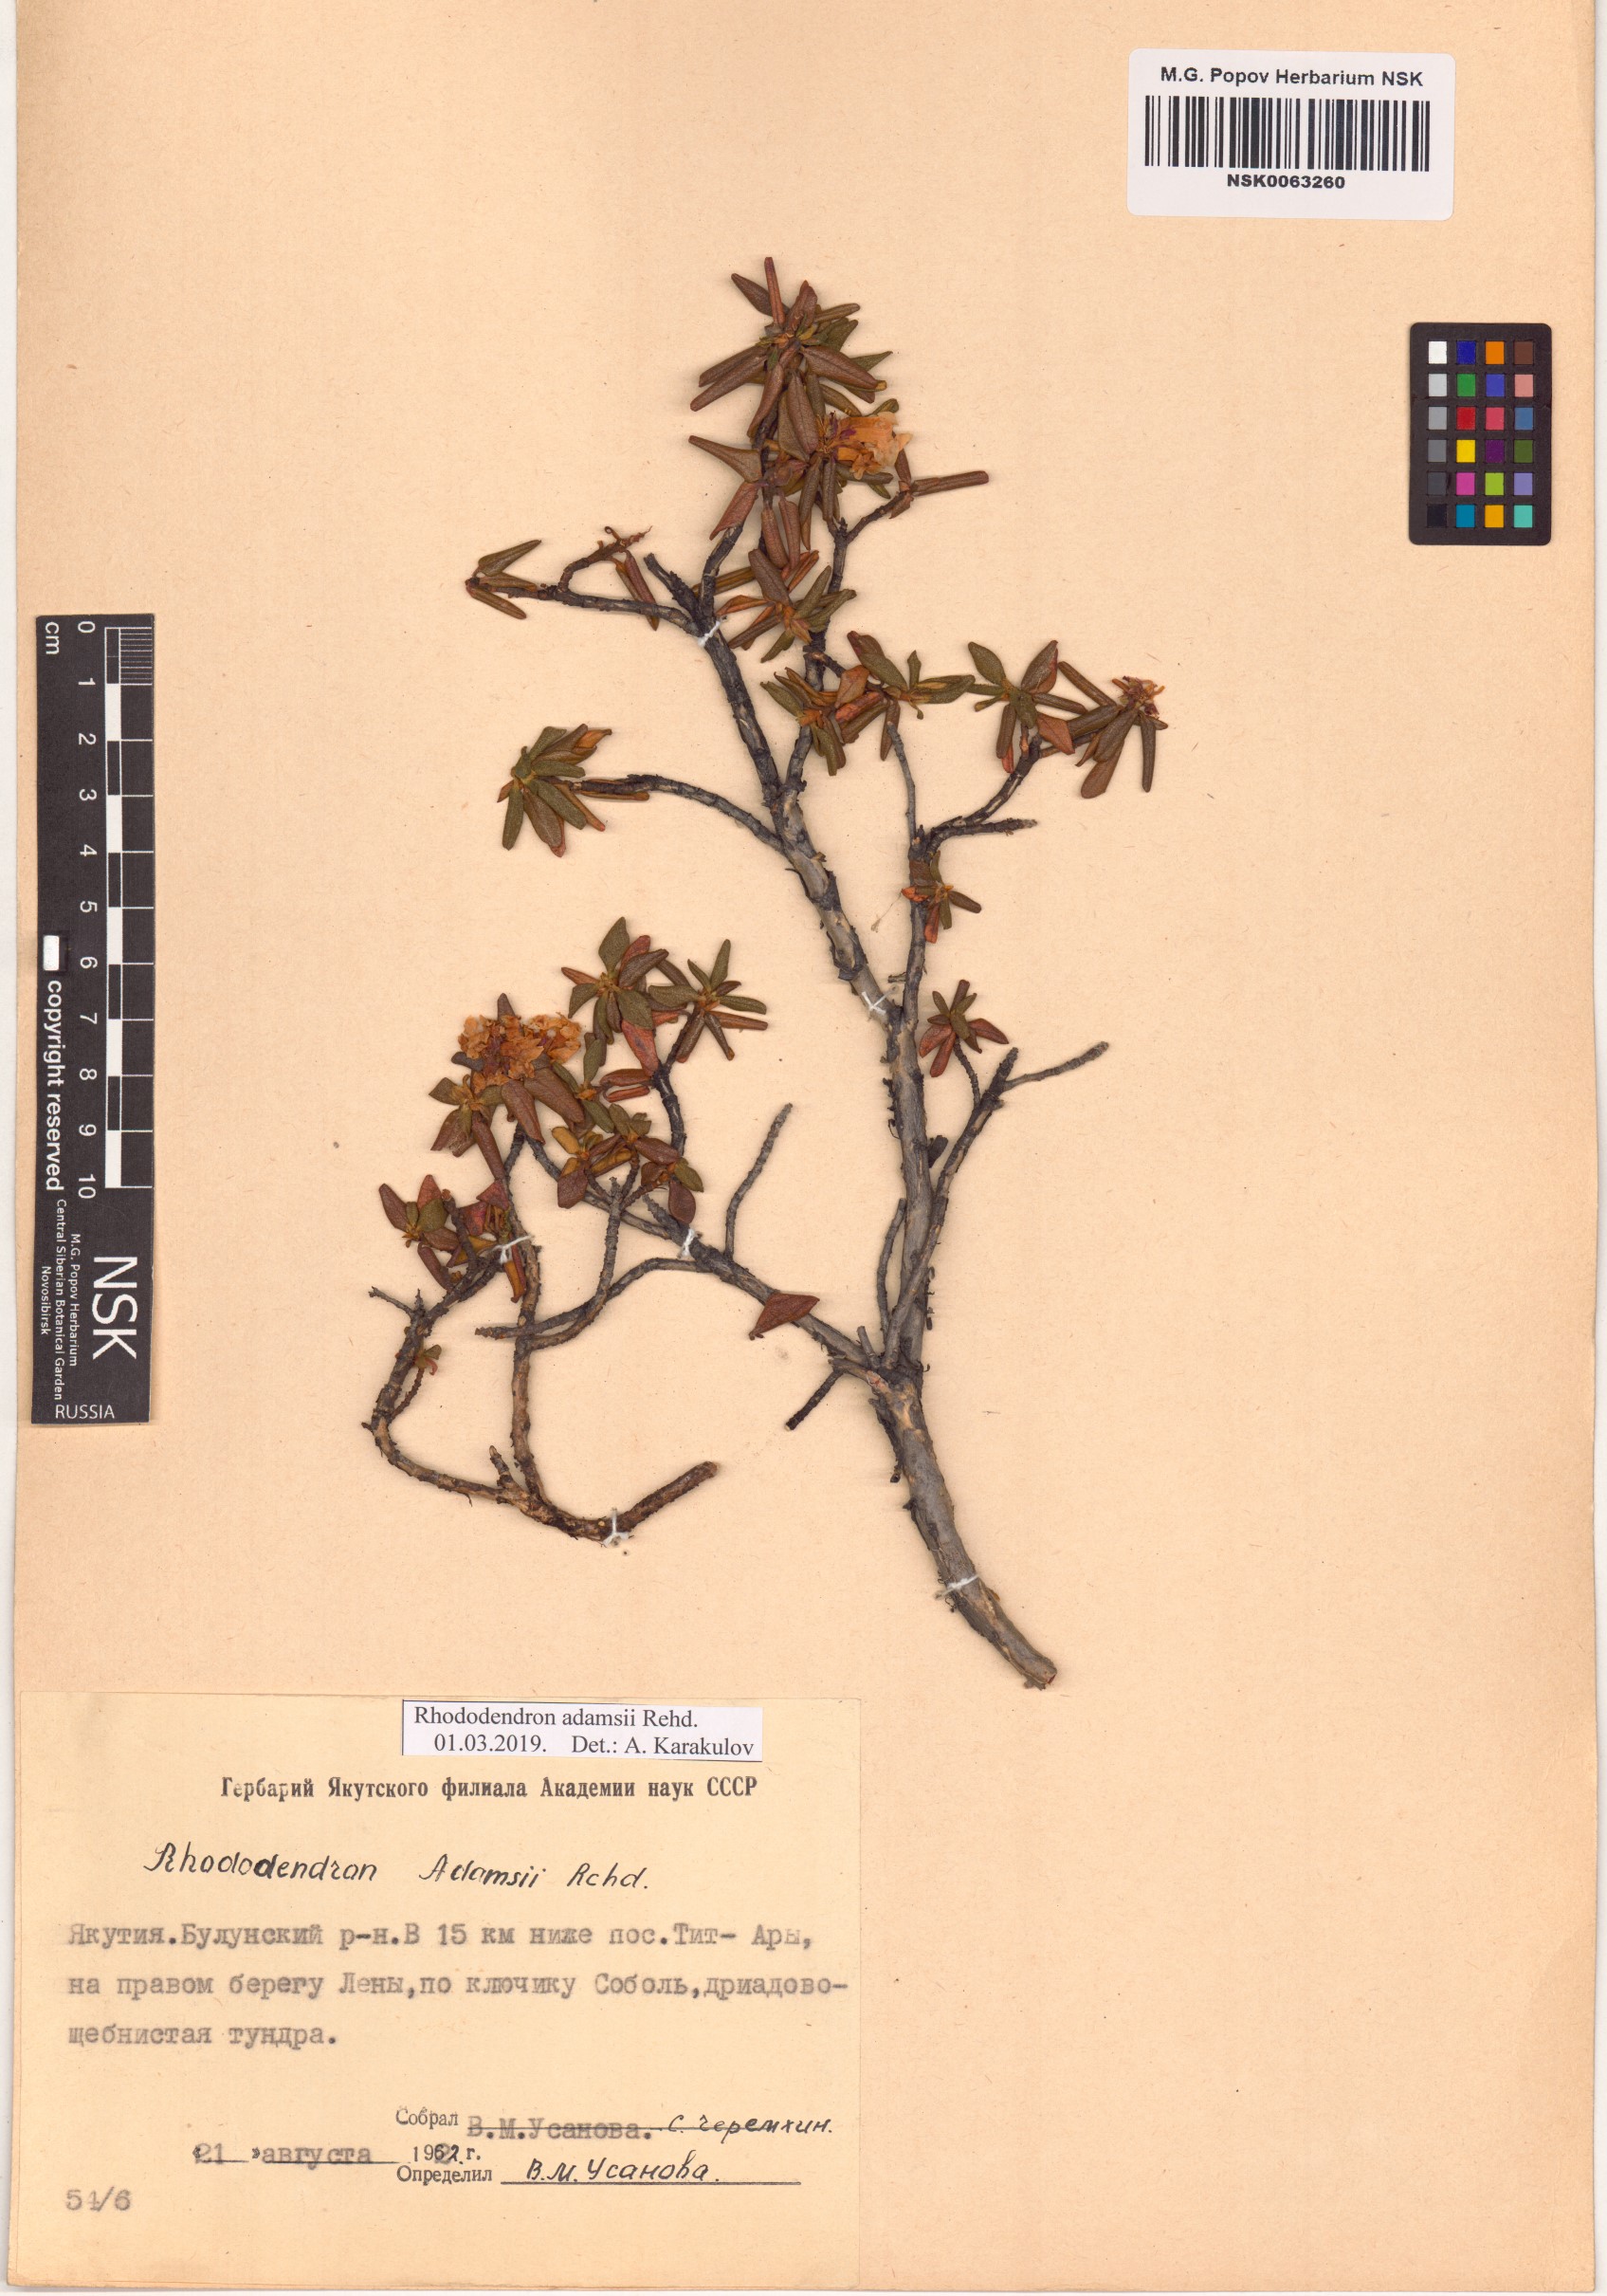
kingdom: Plantae
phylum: Tracheophyta
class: Magnoliopsida
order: Ericales
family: Ericaceae
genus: Rhododendron
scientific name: Rhododendron adamsii
